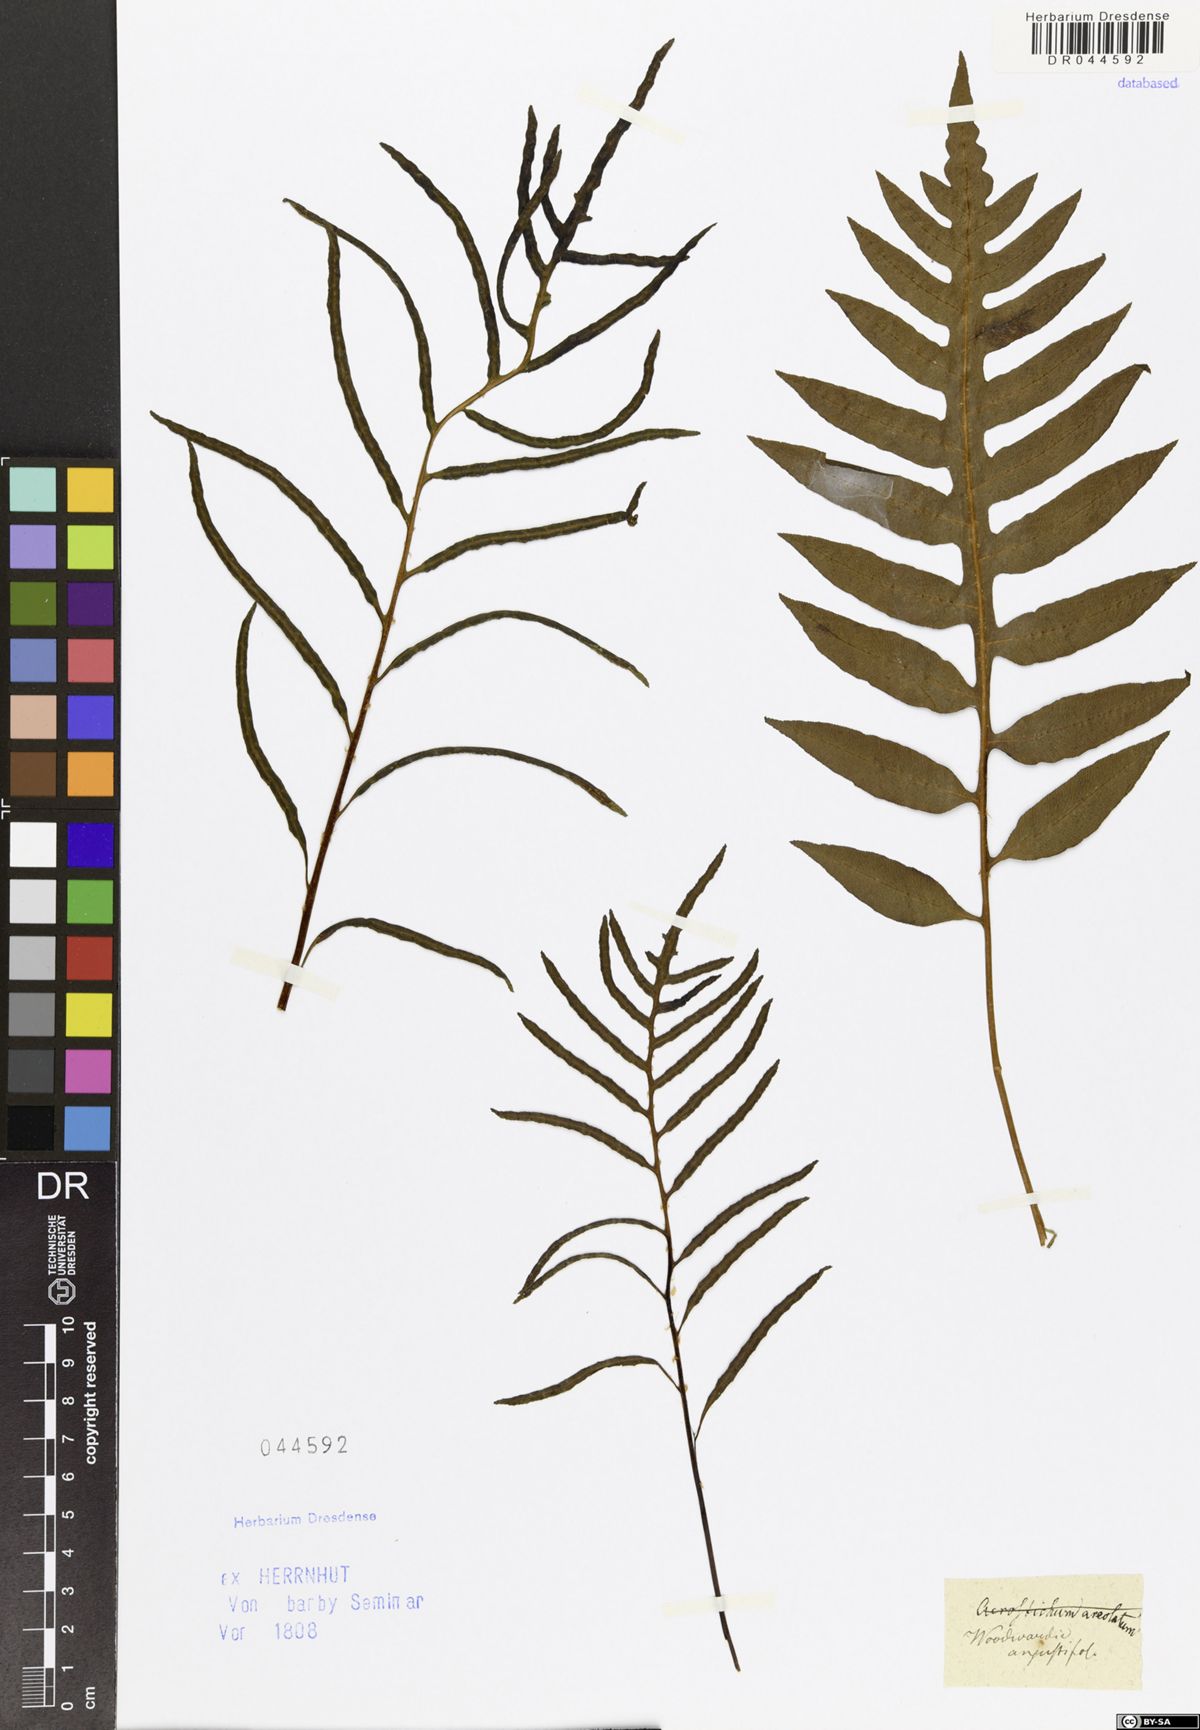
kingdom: Plantae
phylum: Tracheophyta
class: Polypodiopsida
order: Polypodiales
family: Blechnaceae
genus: Lorinseria
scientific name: Lorinseria areolata
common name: Dwarf chain fern
